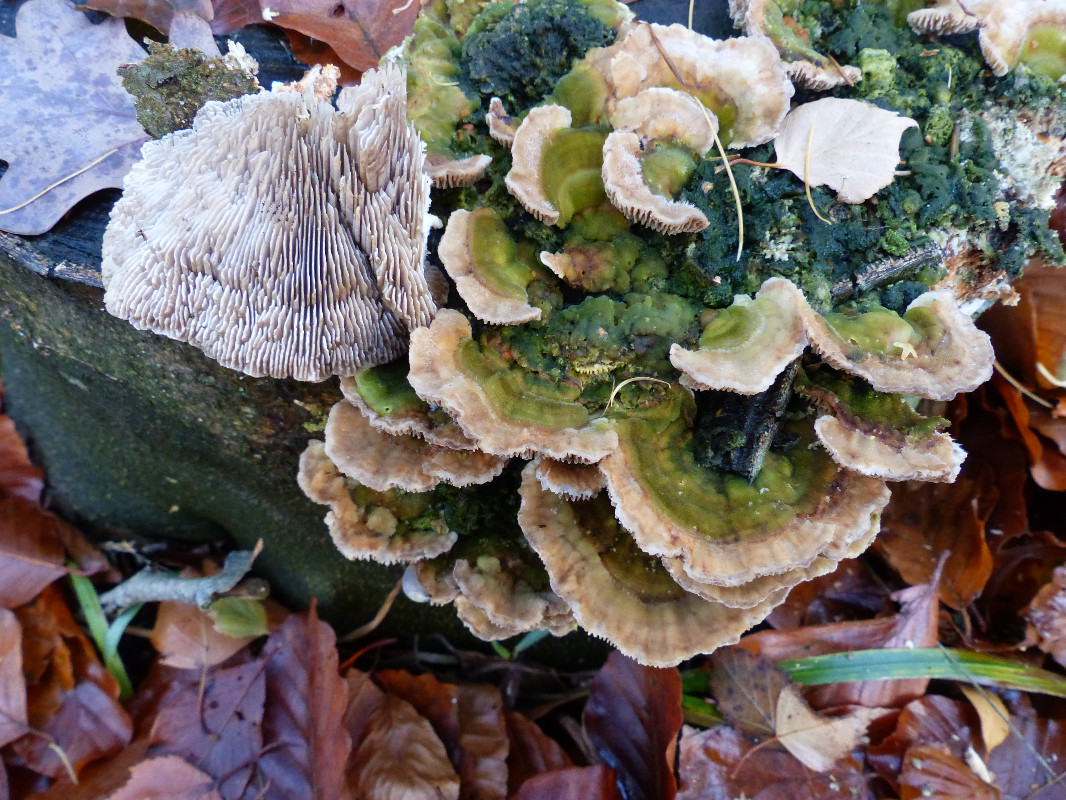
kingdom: Fungi
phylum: Basidiomycota
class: Agaricomycetes
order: Polyporales
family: Polyporaceae
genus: Lenzites
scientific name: Lenzites betulinus
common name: birke-læderporesvamp
